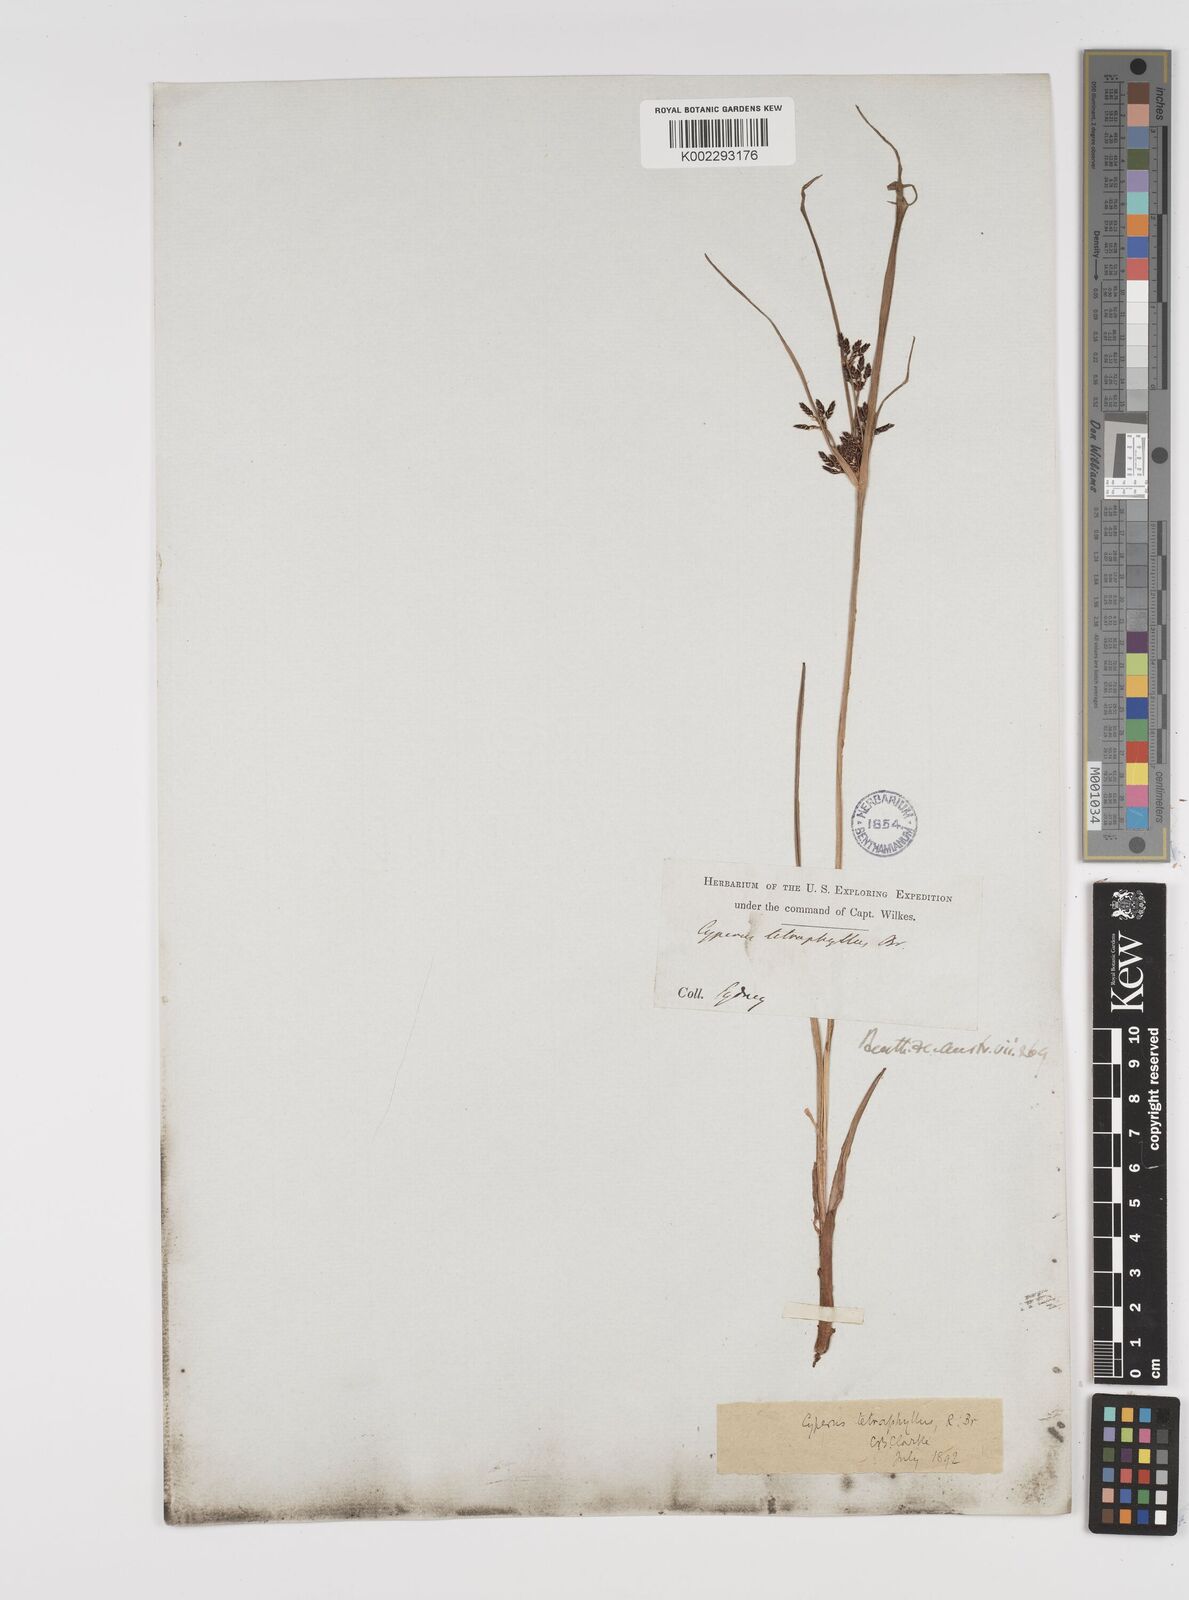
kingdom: Plantae
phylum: Tracheophyta
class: Liliopsida
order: Poales
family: Cyperaceae
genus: Cyperus
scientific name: Cyperus tetraphyllus
